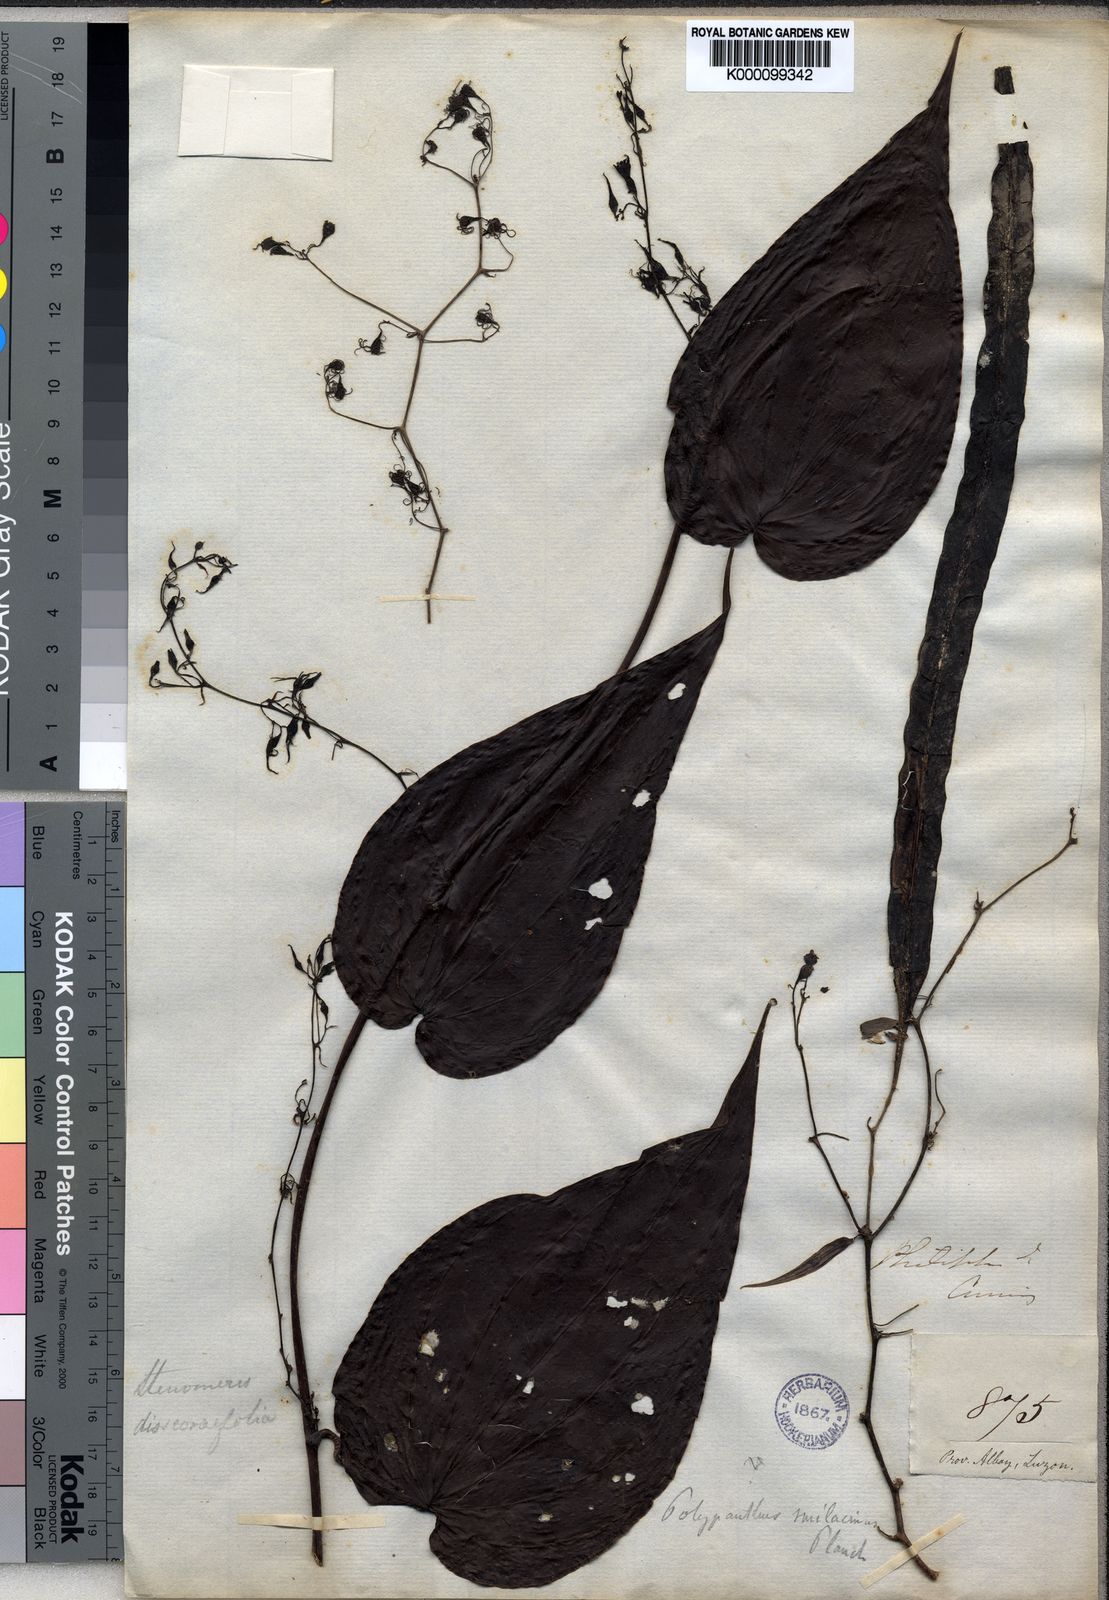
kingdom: Plantae
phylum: Tracheophyta
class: Liliopsida
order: Dioscoreales
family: Dioscoreaceae
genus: Stenomeris
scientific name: Stenomeris dioscoreifolia
